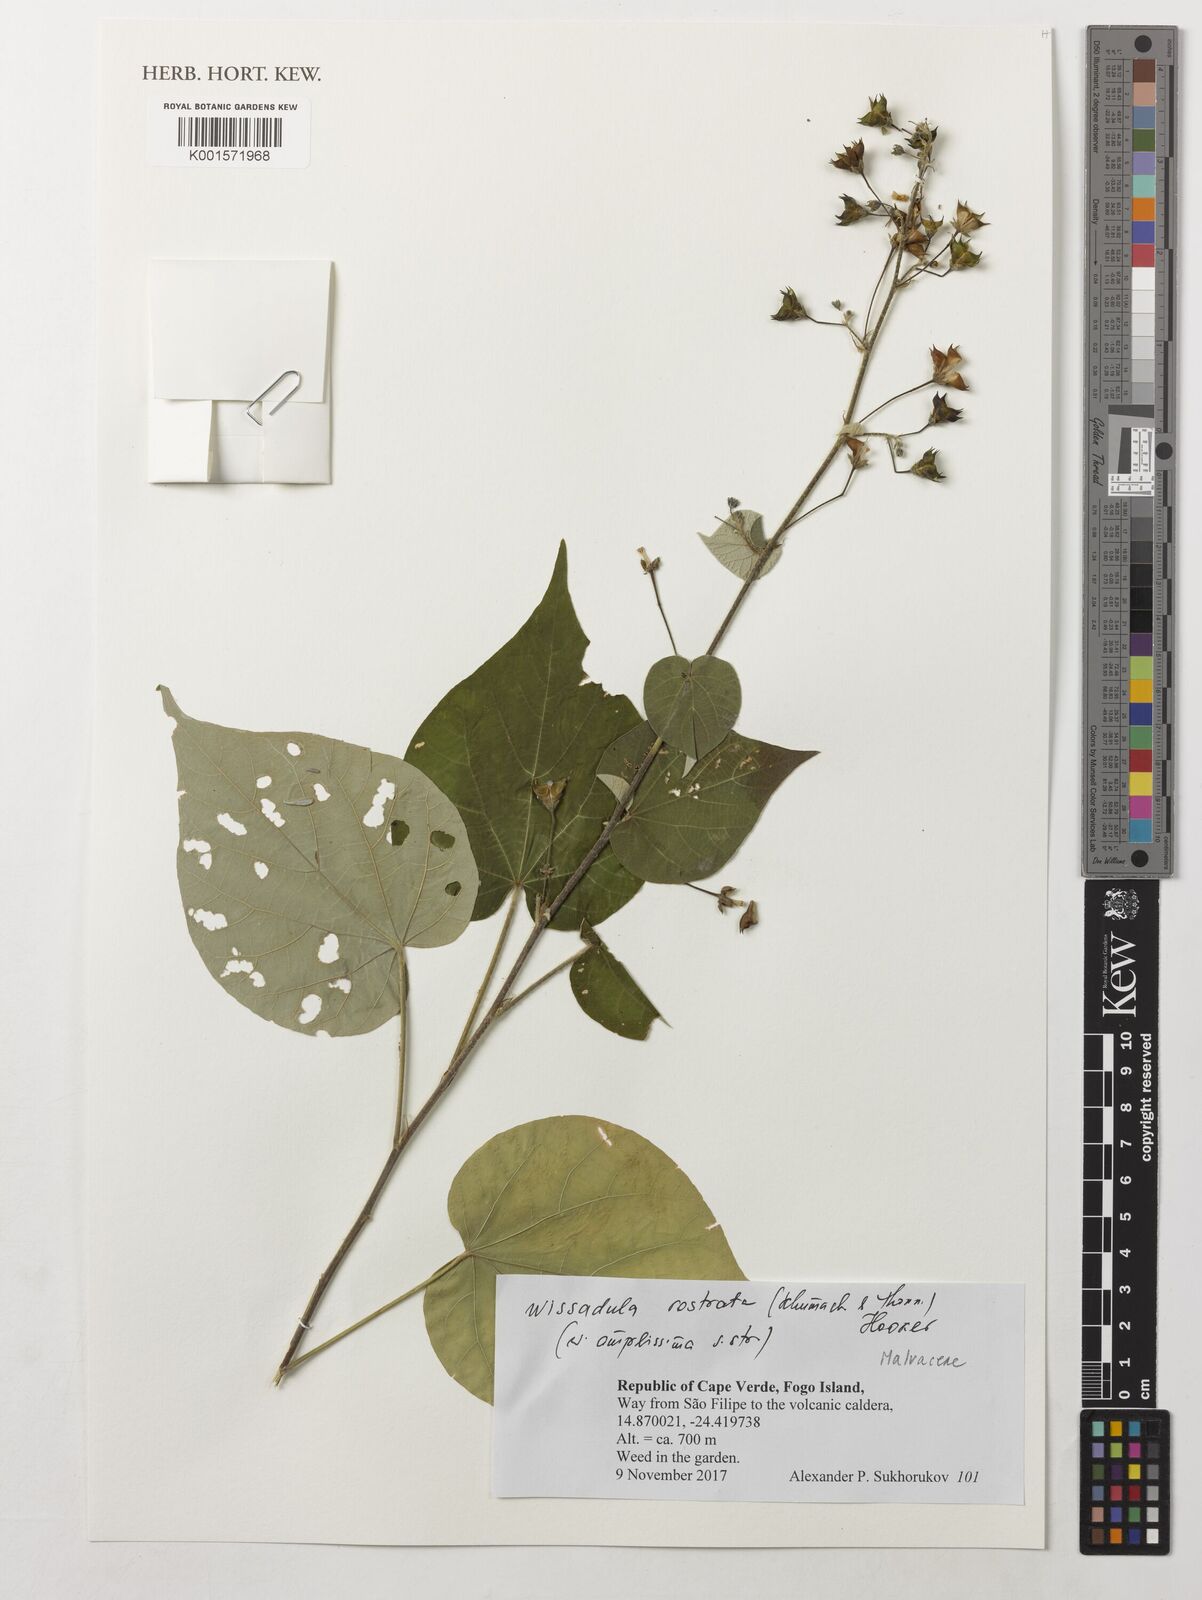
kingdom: Plantae
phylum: Tracheophyta
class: Magnoliopsida
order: Malvales
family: Malvaceae
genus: Wissadula
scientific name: Wissadula periplocifolia
